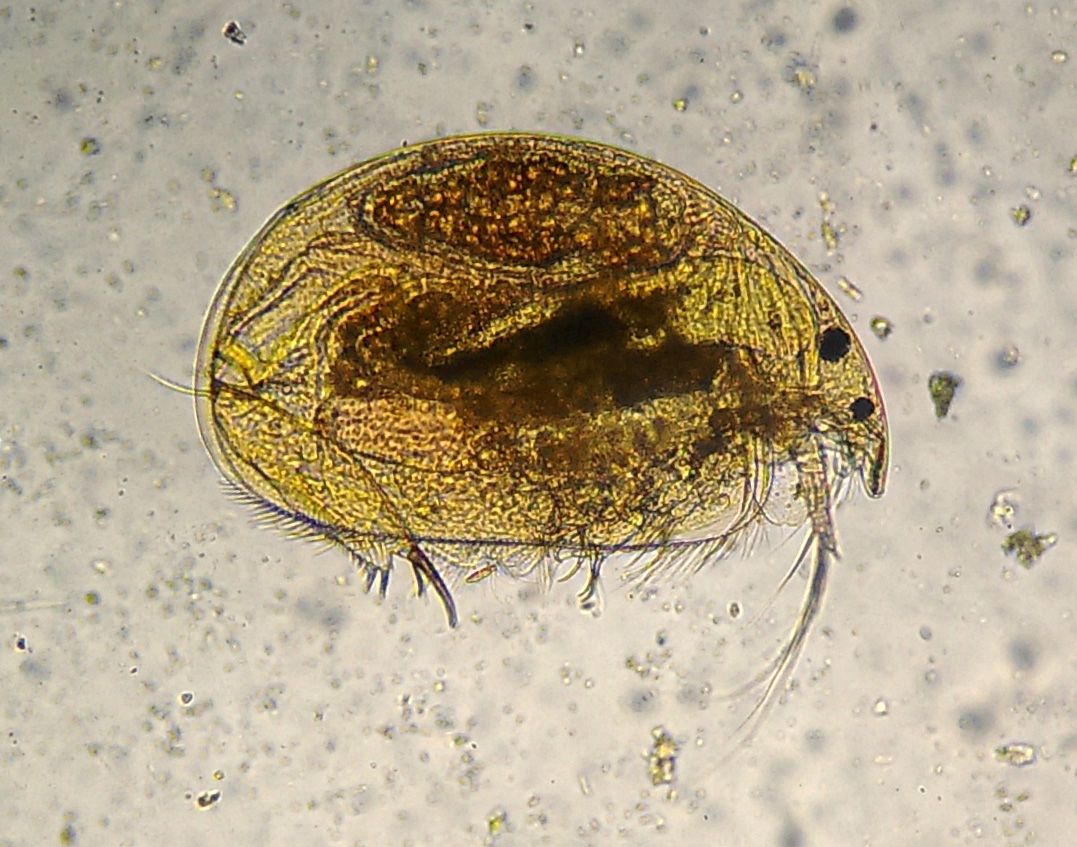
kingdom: Animalia
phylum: Arthropoda
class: Branchiopoda
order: Diplostraca
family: Chydoridae
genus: Oxyurella
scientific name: Oxyurella tenuicaudis
